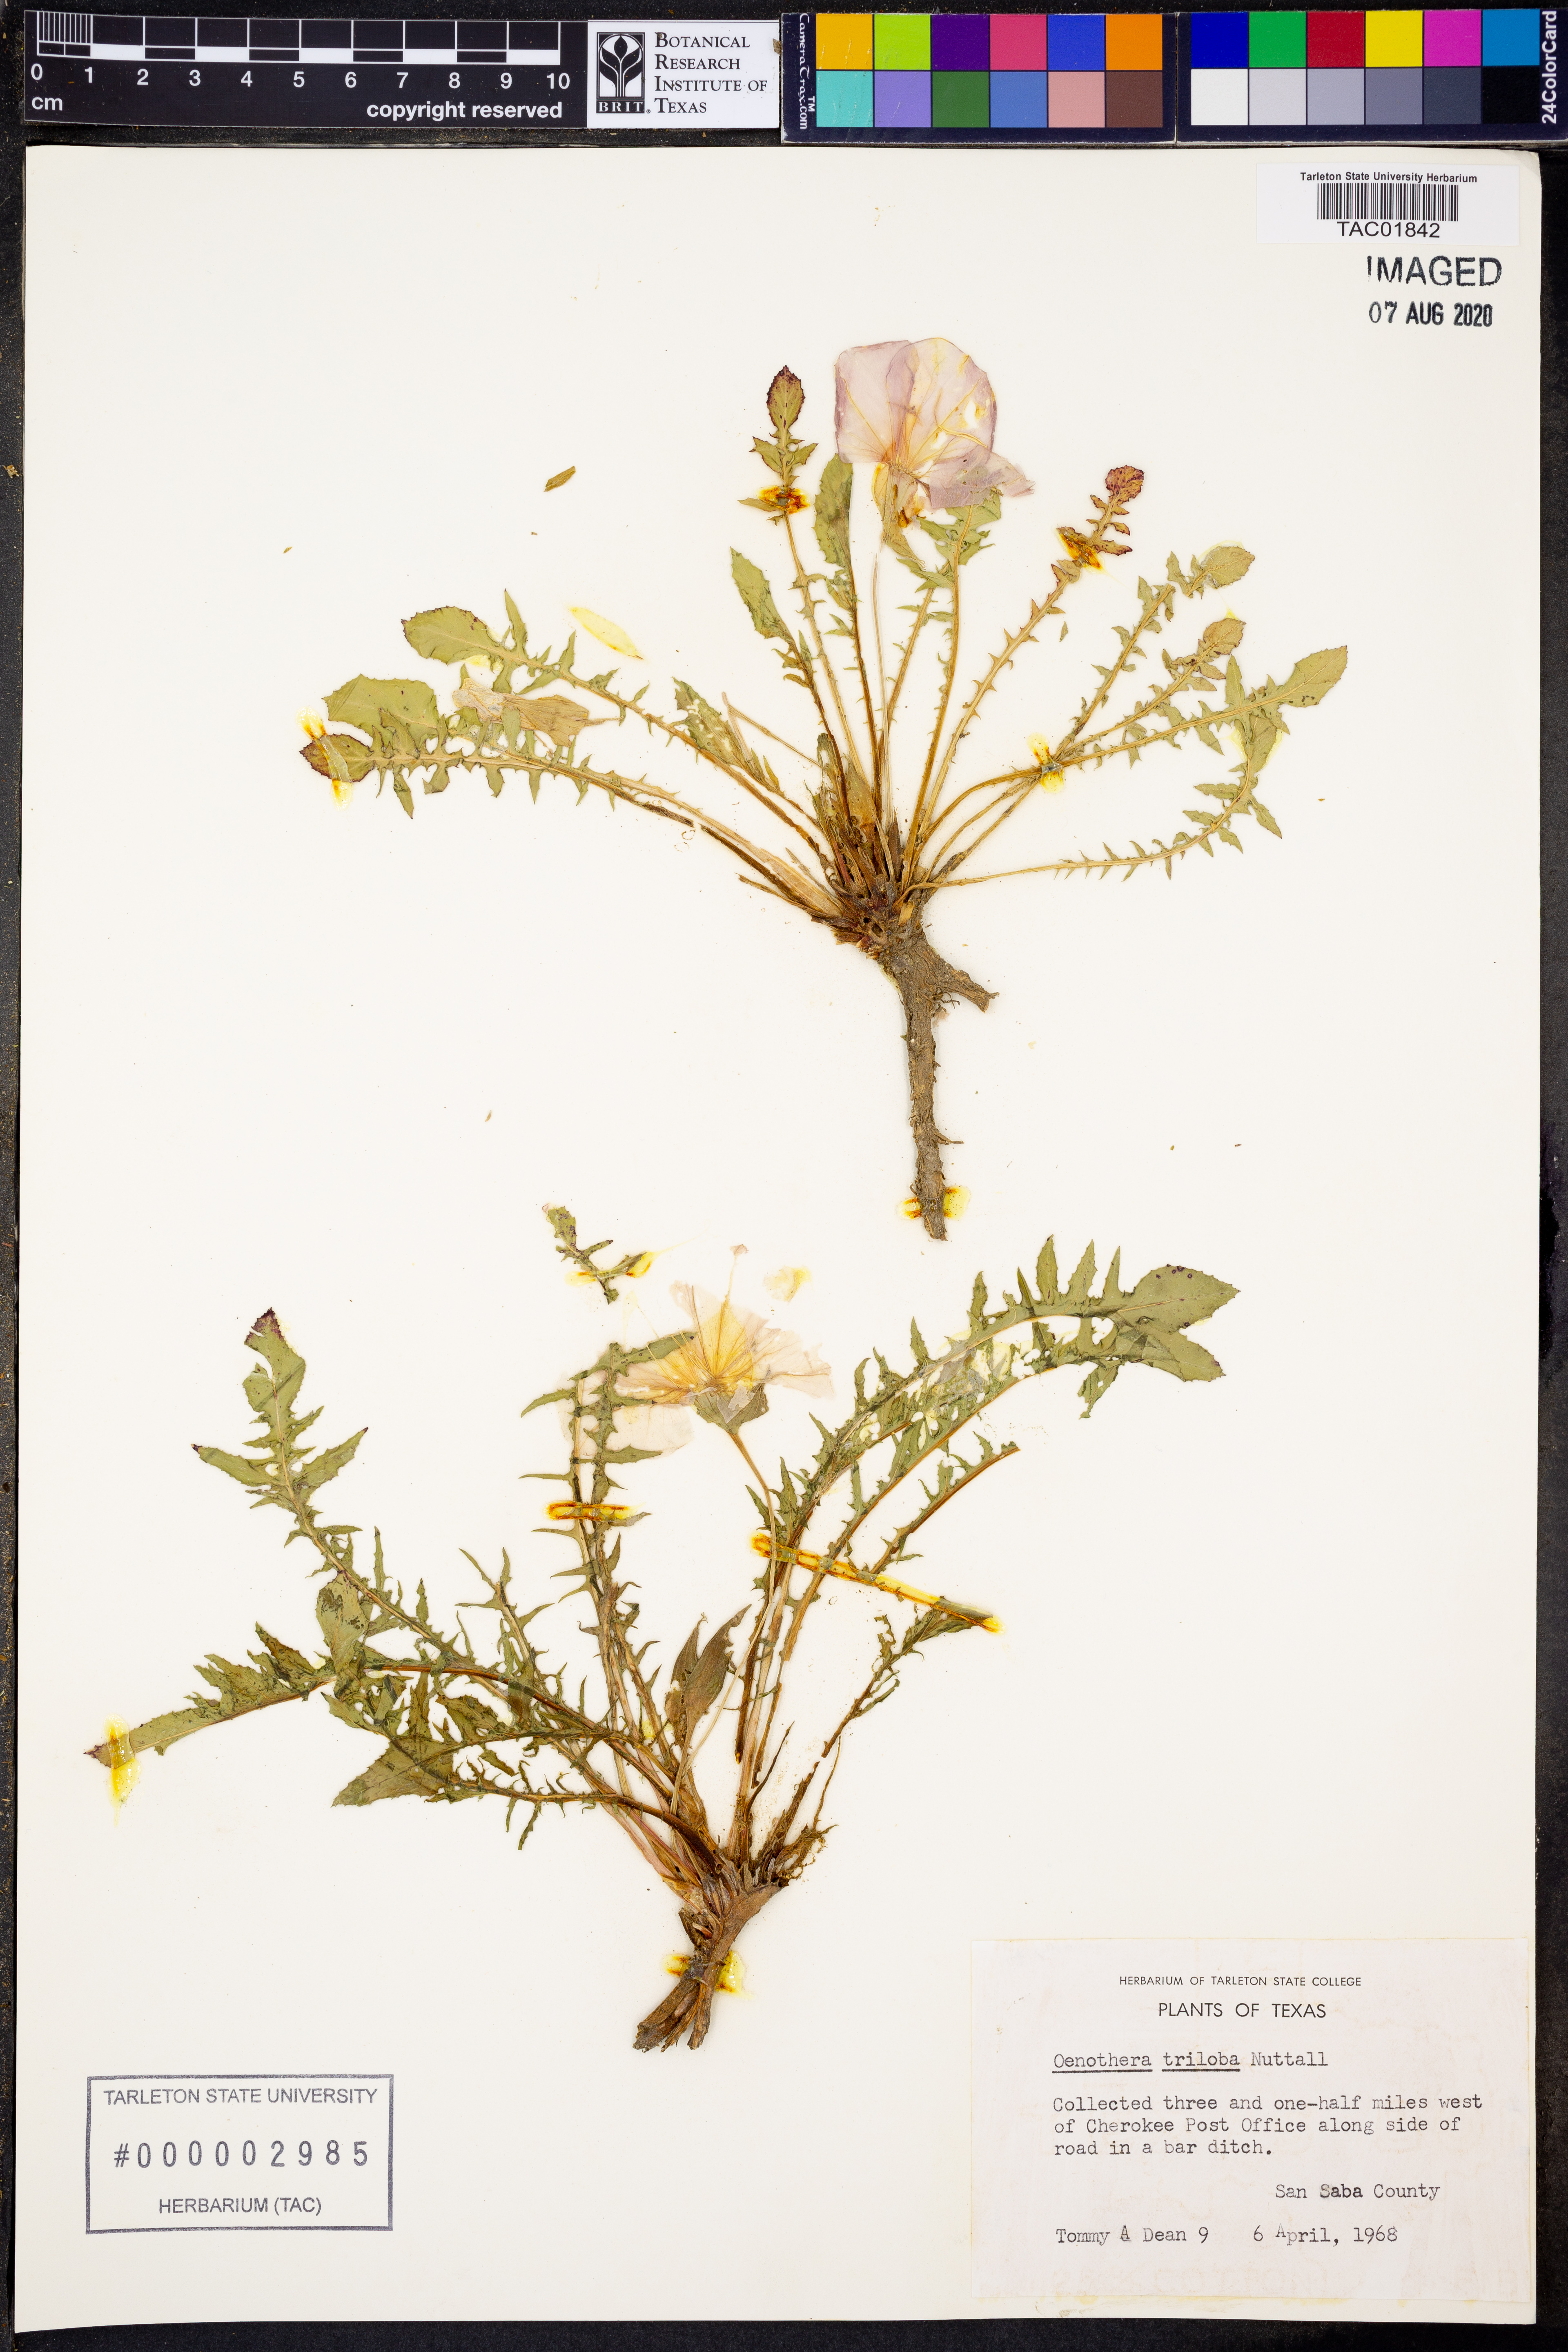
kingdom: Plantae
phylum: Tracheophyta
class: Magnoliopsida
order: Myrtales
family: Onagraceae
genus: Oenothera
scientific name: Oenothera triloba
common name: Sessile evening-primrose
